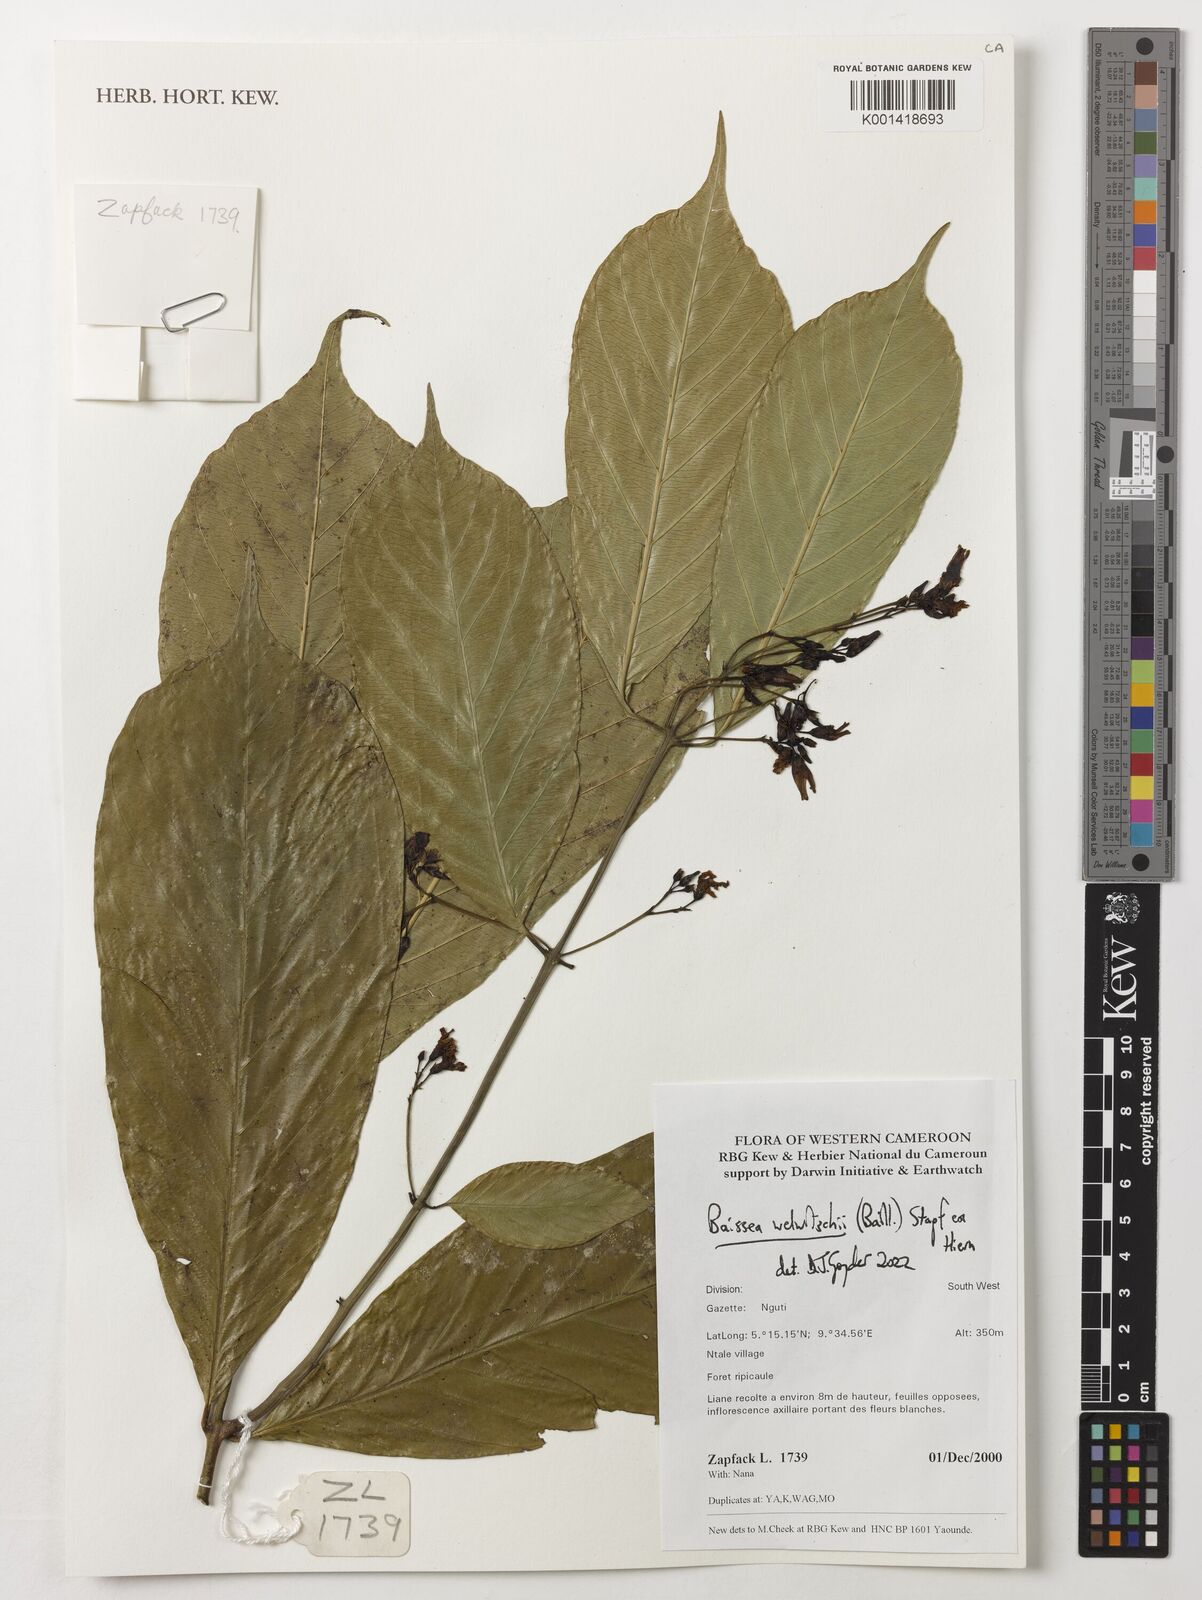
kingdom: Plantae
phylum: Tracheophyta
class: Magnoliopsida
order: Gentianales
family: Apocynaceae
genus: Baissea
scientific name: Baissea welwitschii
